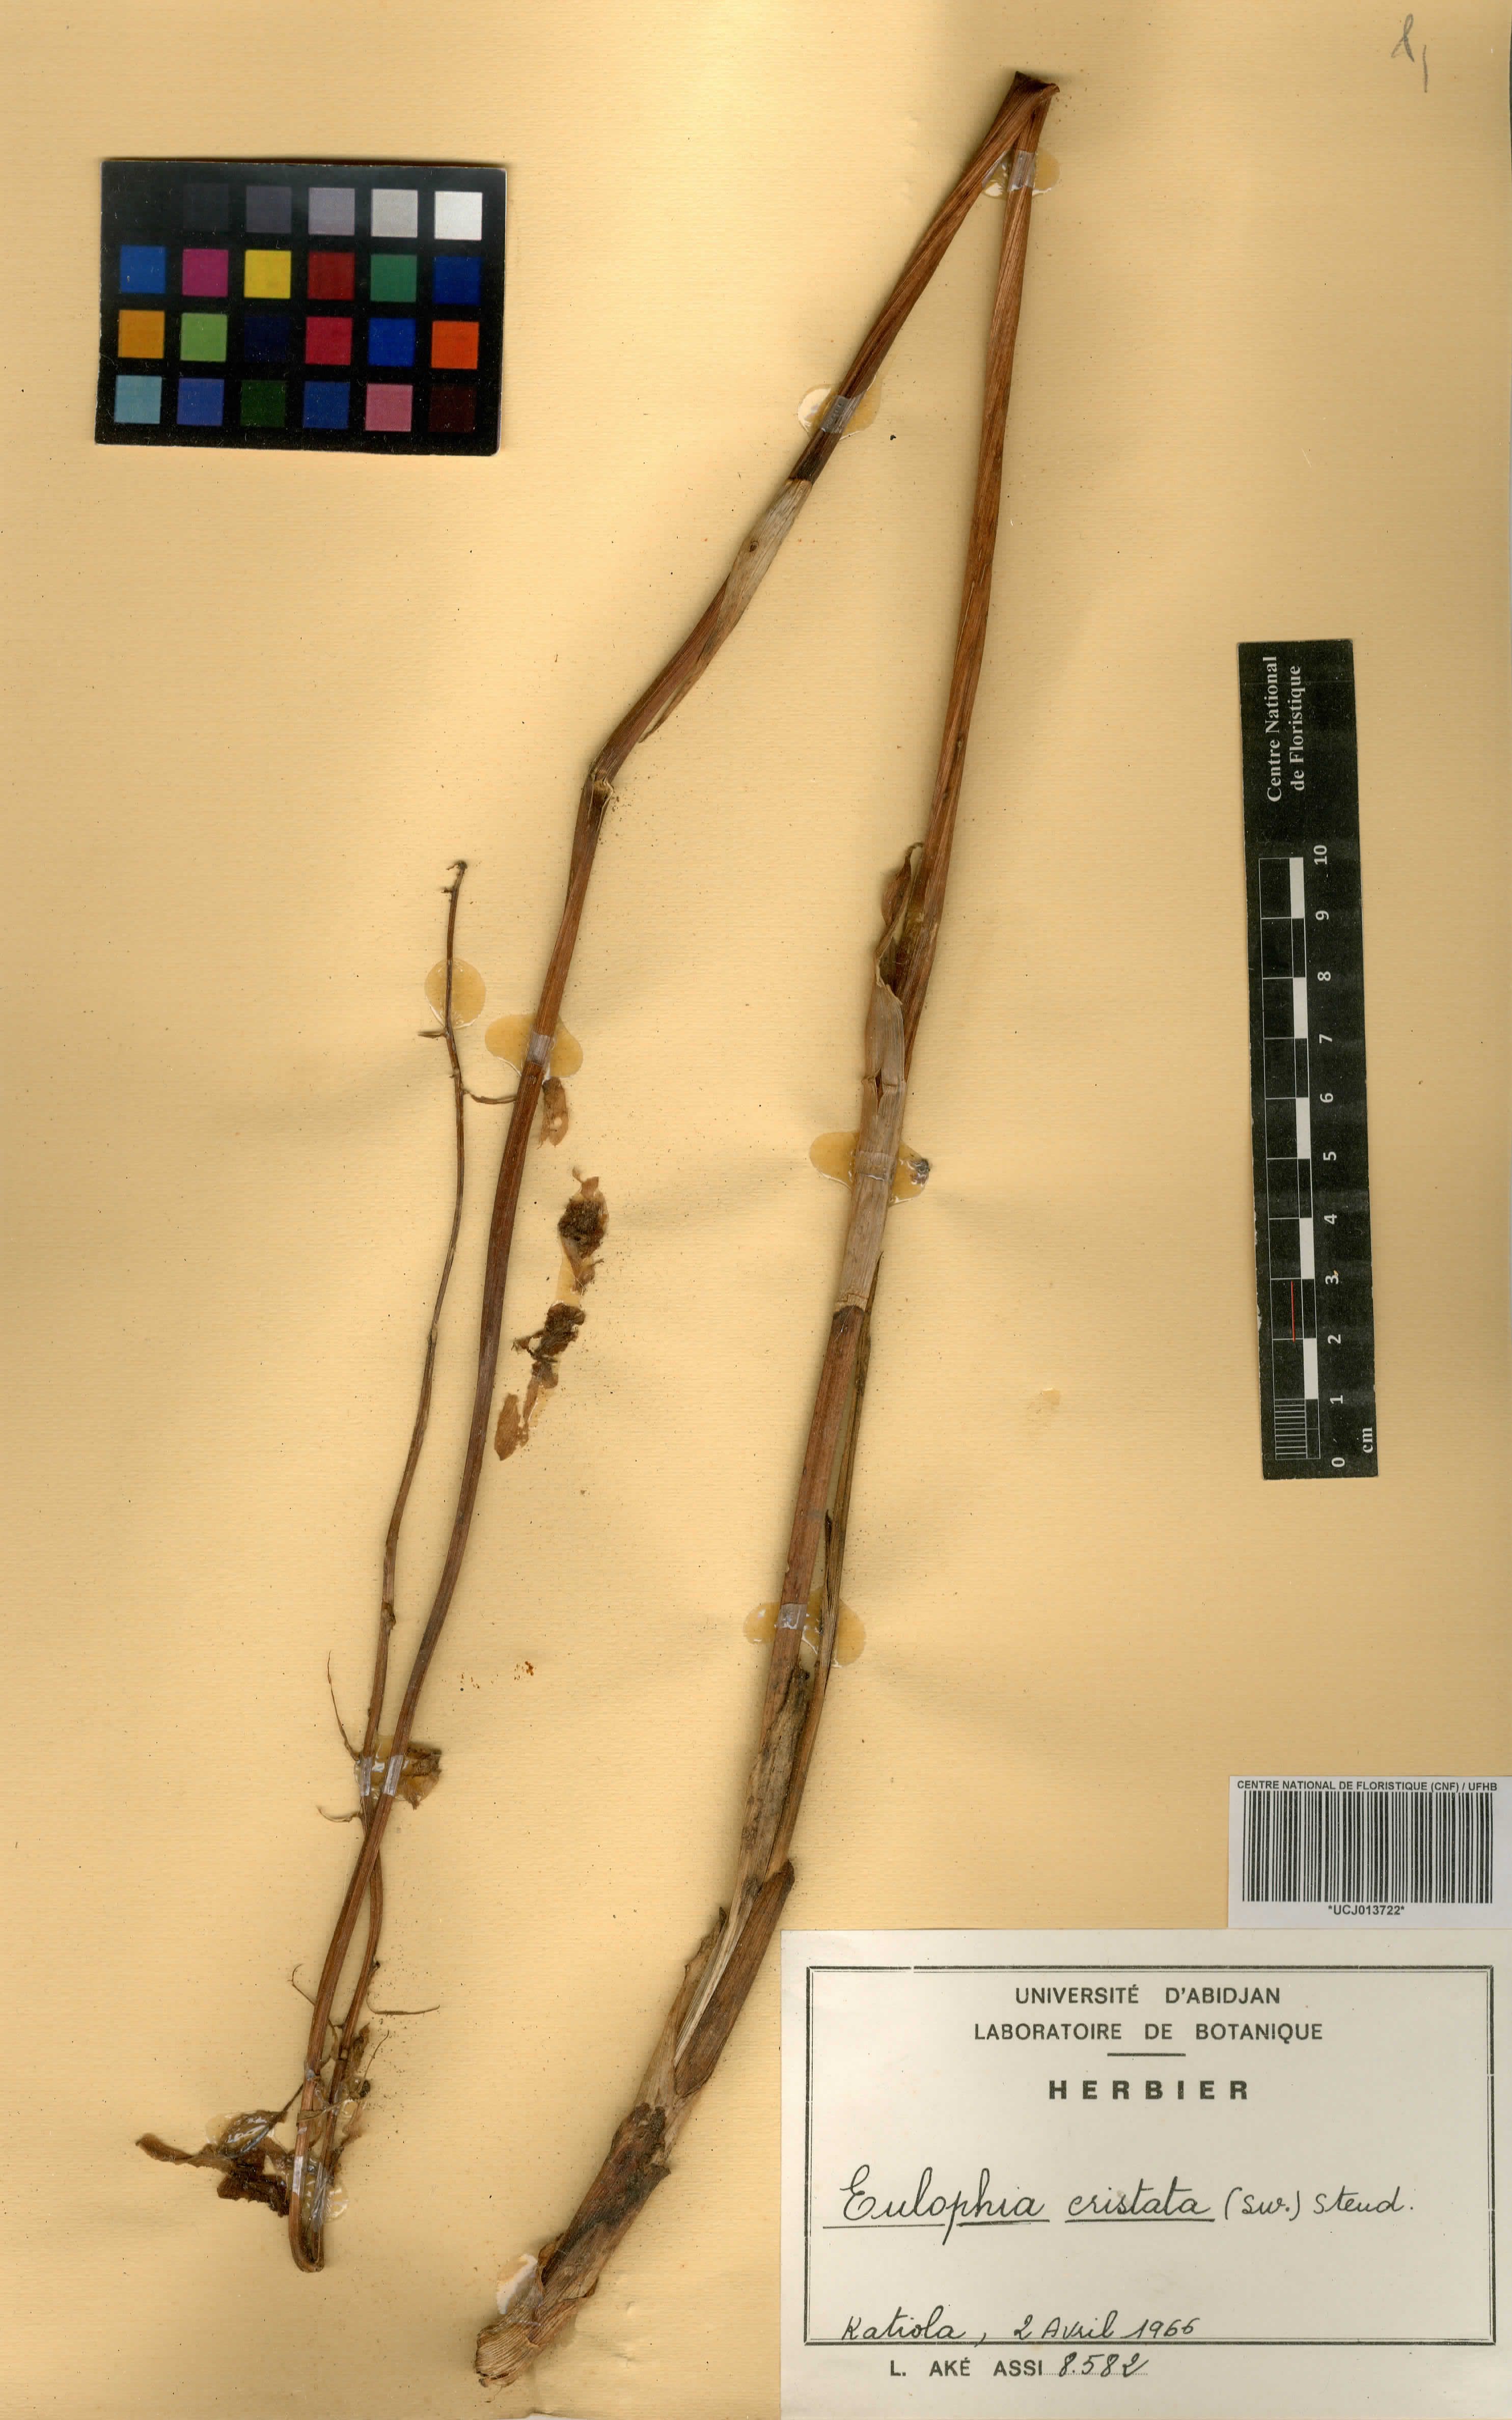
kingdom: Plantae
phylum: Tracheophyta
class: Liliopsida
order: Asparagales
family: Orchidaceae
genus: Eulophia
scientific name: Eulophia cristata
